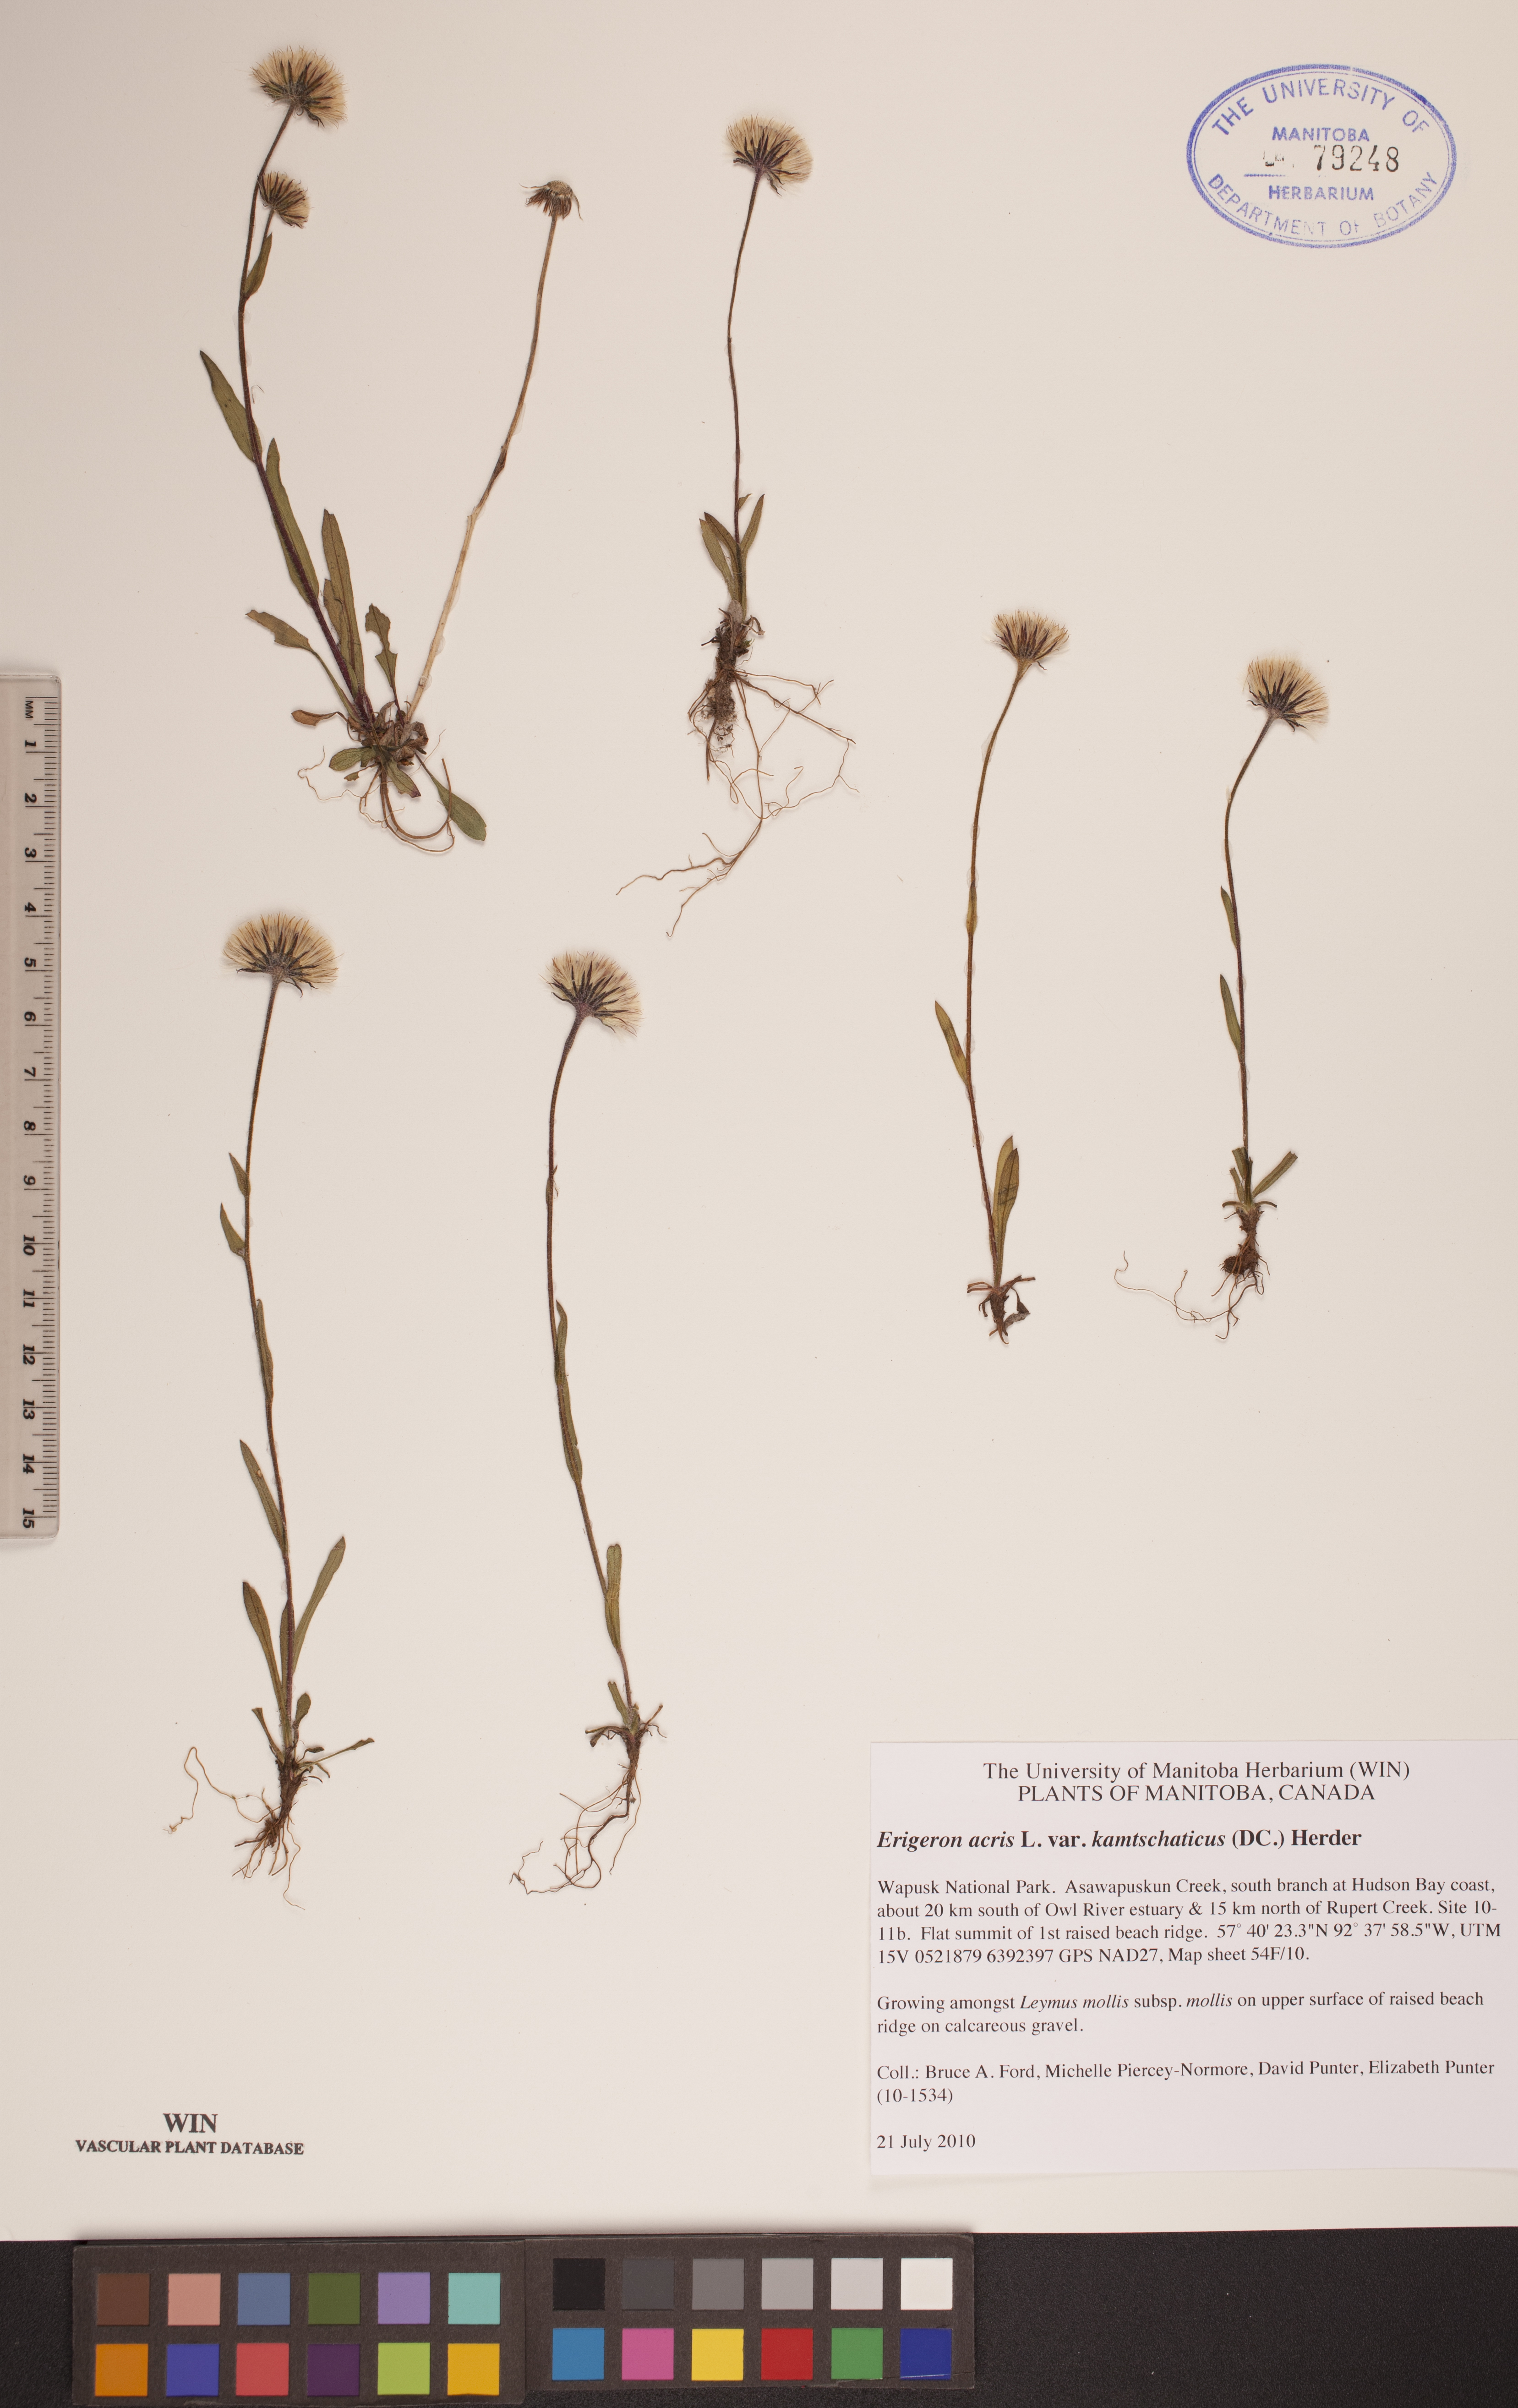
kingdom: Plantae
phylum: Tracheophyta
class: Magnoliopsida
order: Asterales
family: Asteraceae
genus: Erigeron
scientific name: Erigeron kamtschaticus
